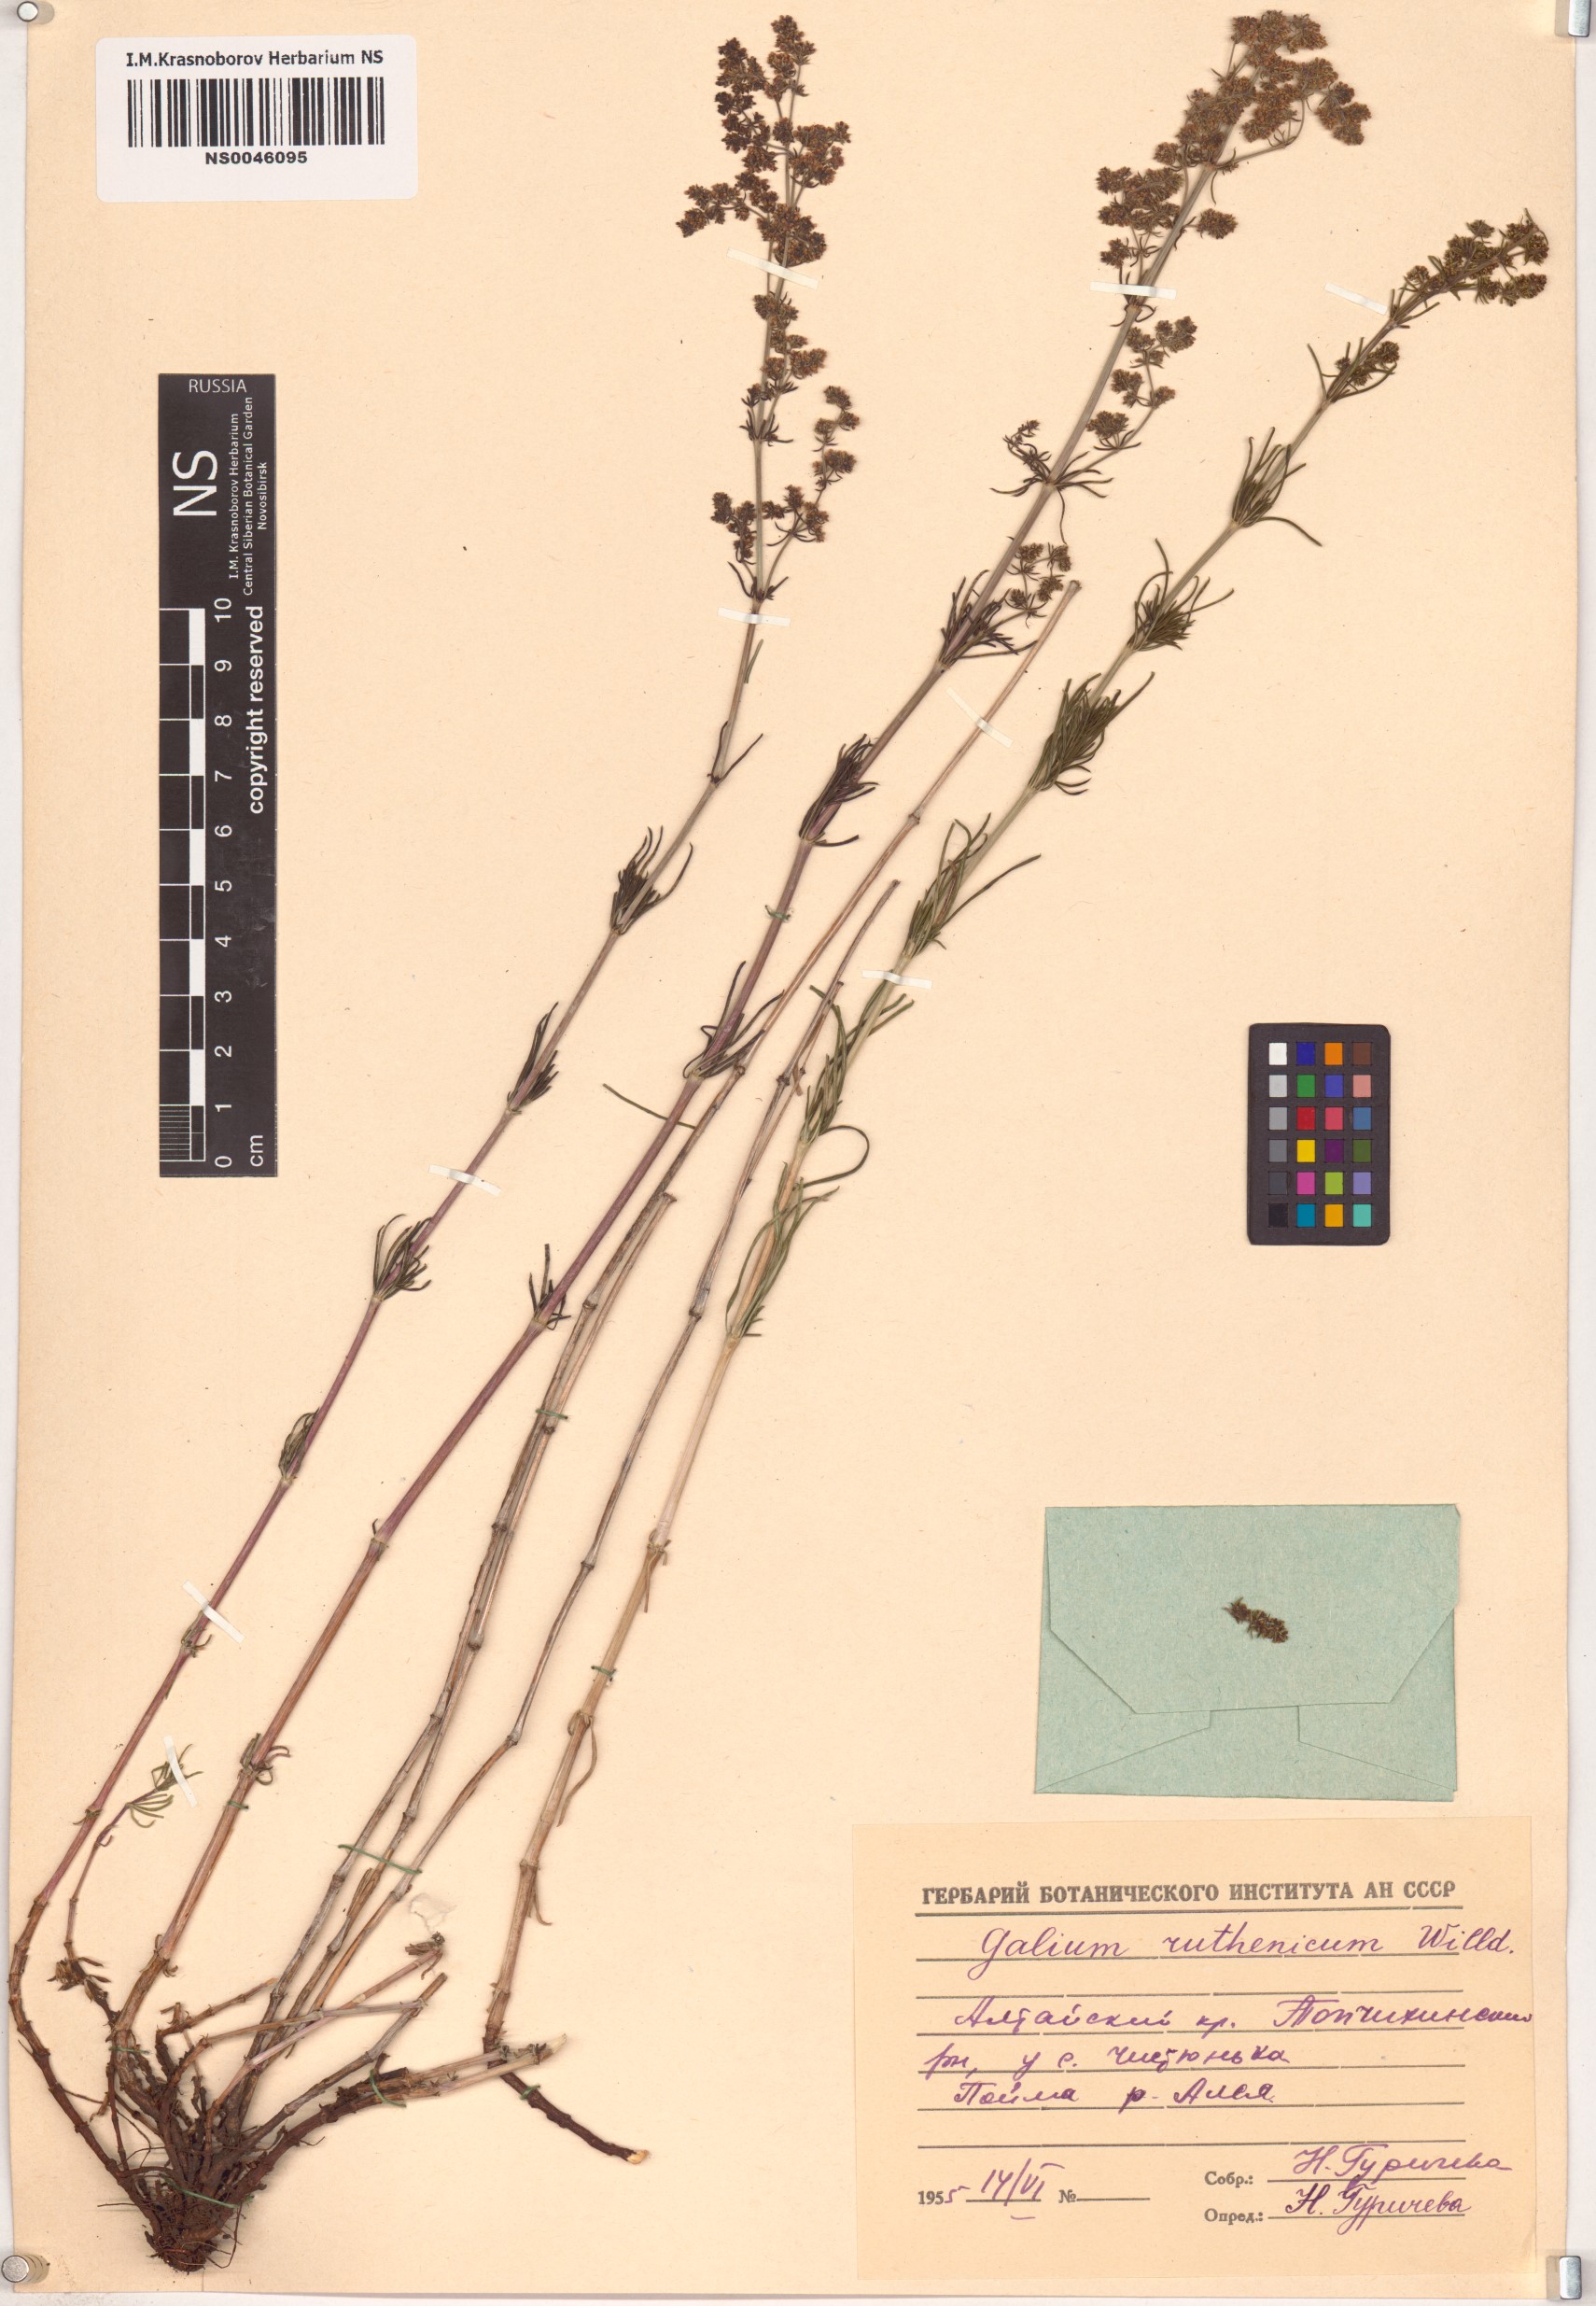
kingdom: Plantae
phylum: Tracheophyta
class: Magnoliopsida
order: Gentianales
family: Rubiaceae
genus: Galium
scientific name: Galium verum
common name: Lady's bedstraw
